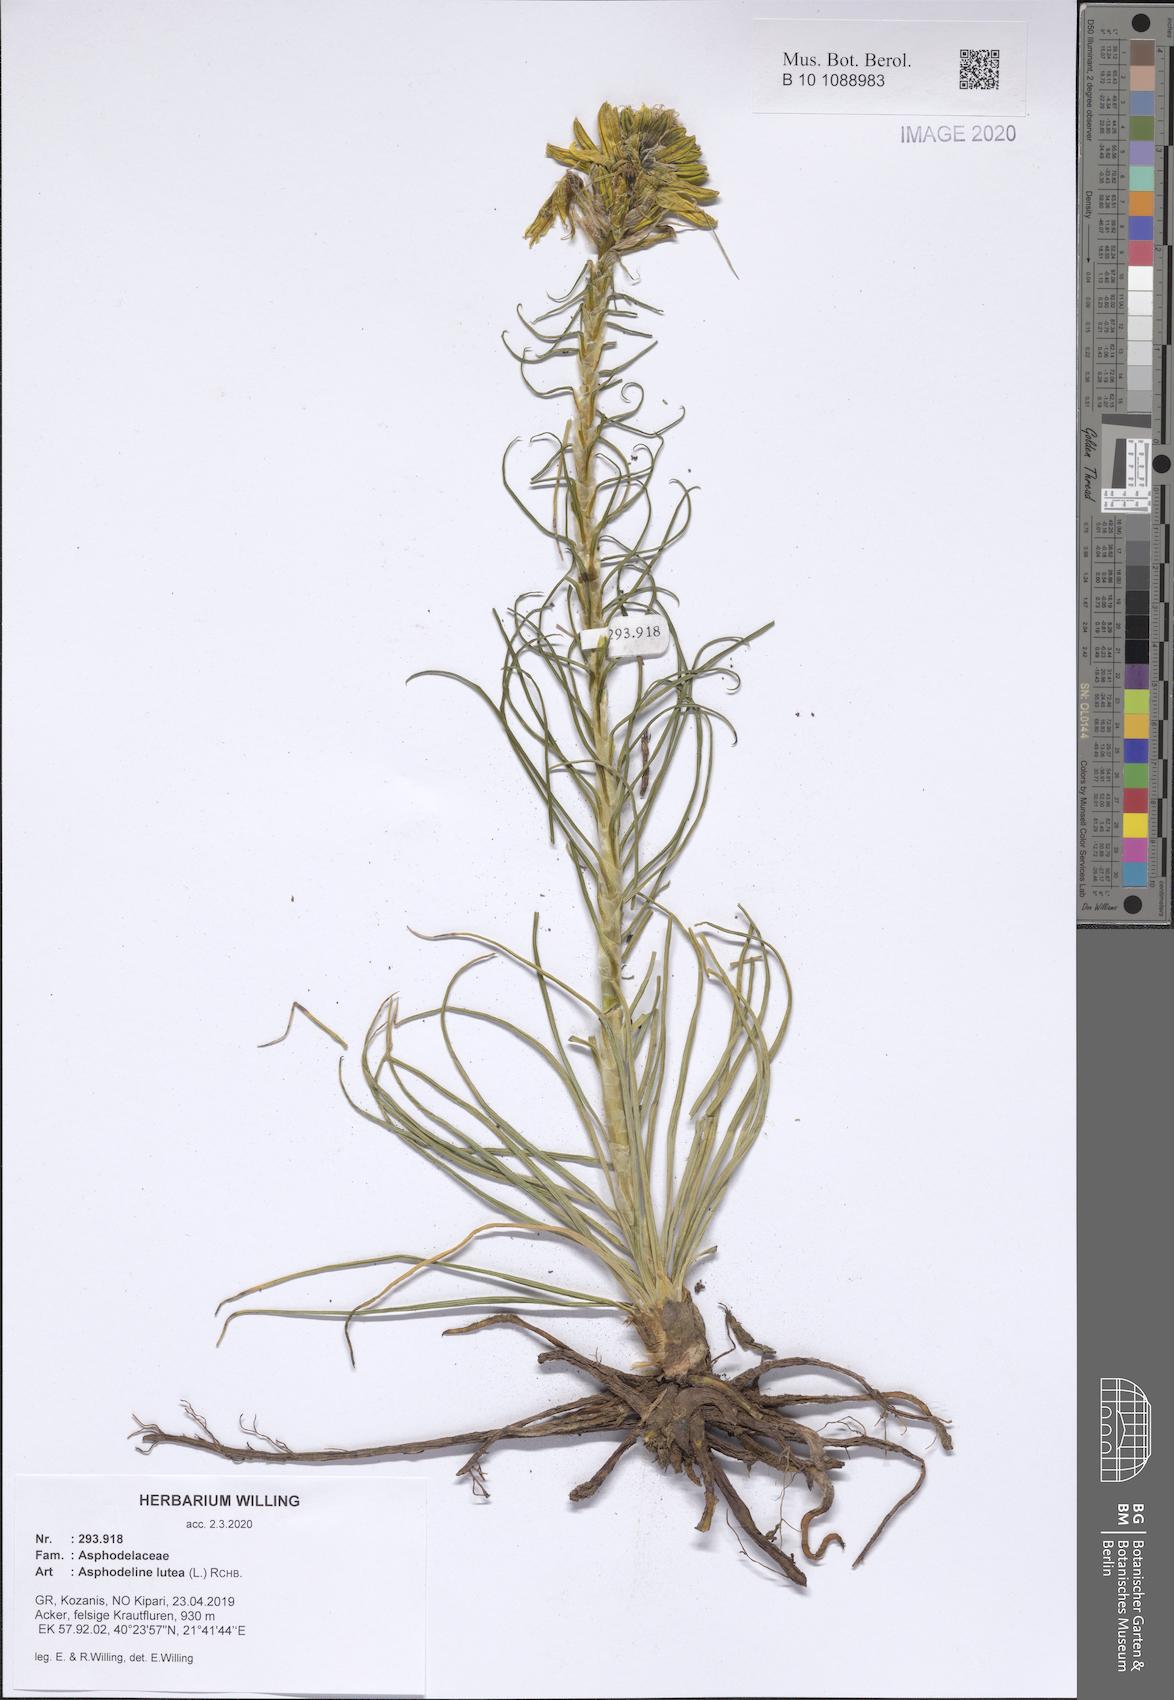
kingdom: Plantae
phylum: Tracheophyta
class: Liliopsida
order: Asparagales
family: Asphodelaceae
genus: Asphodeline
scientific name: Asphodeline lutea
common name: Yellow asphodel
